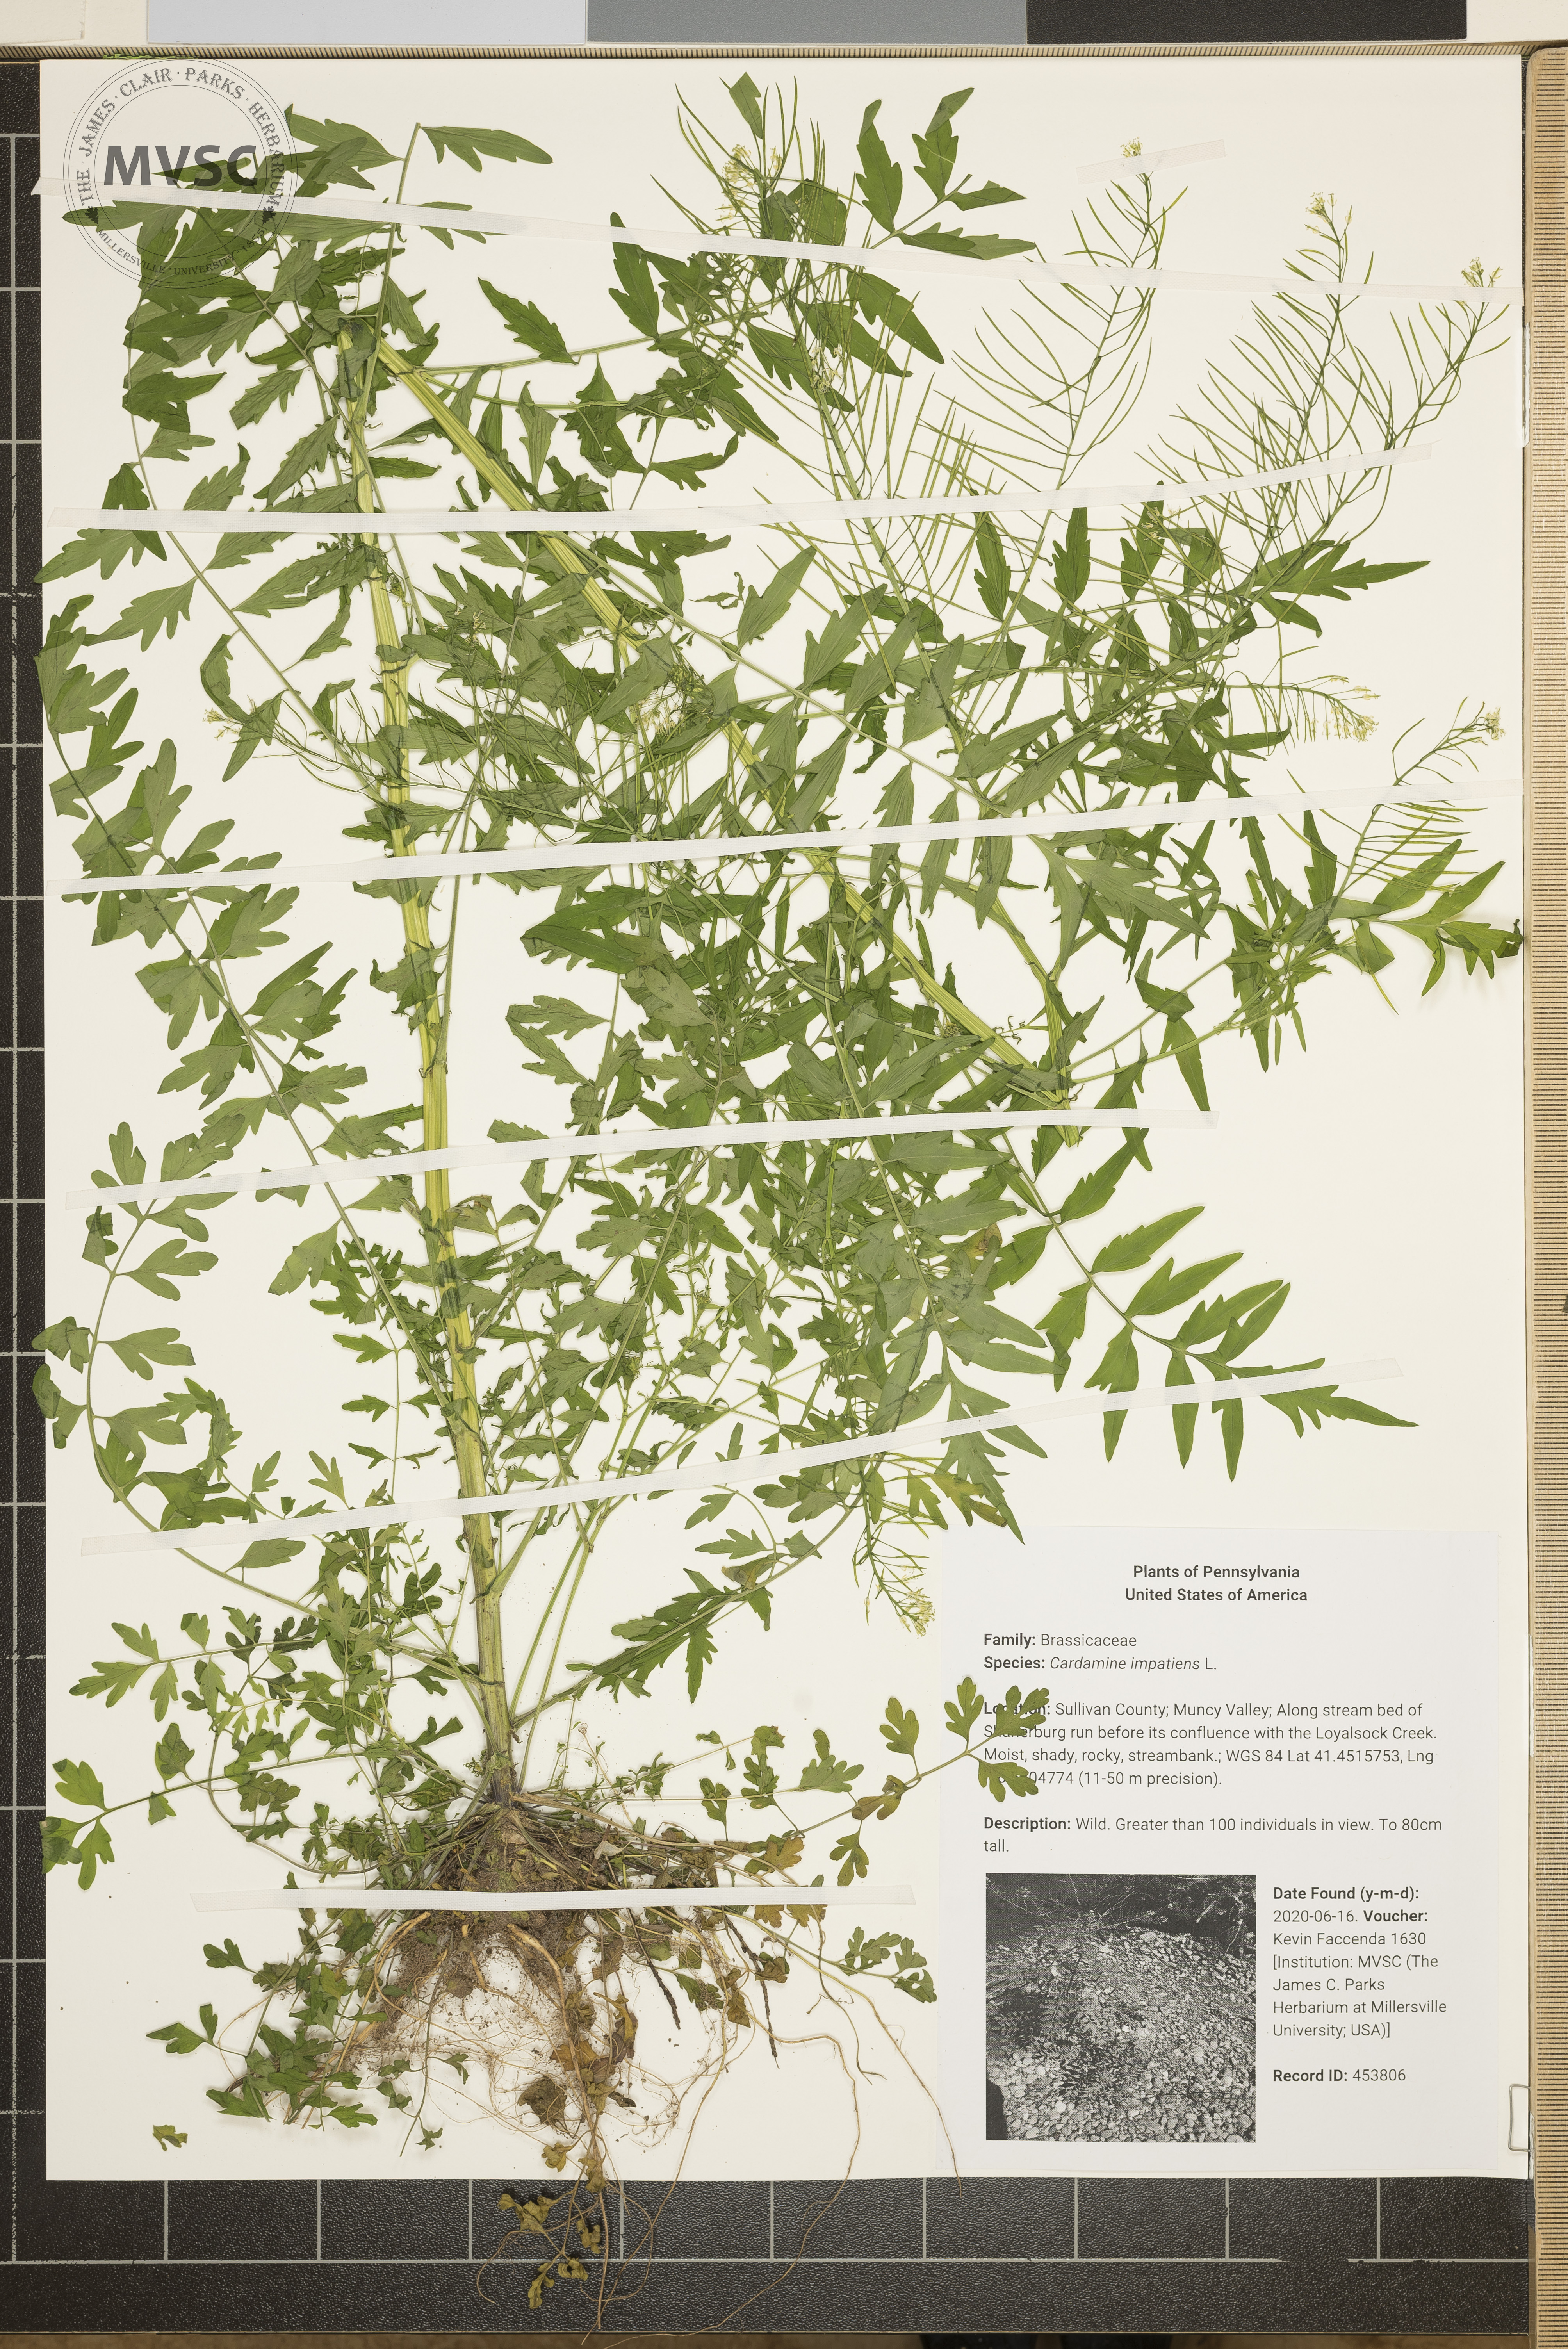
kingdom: Plantae
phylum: Tracheophyta
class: Magnoliopsida
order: Brassicales
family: Brassicaceae
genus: Cardamine
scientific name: Cardamine impatiens
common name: Narrow-leaved bitter-cress
